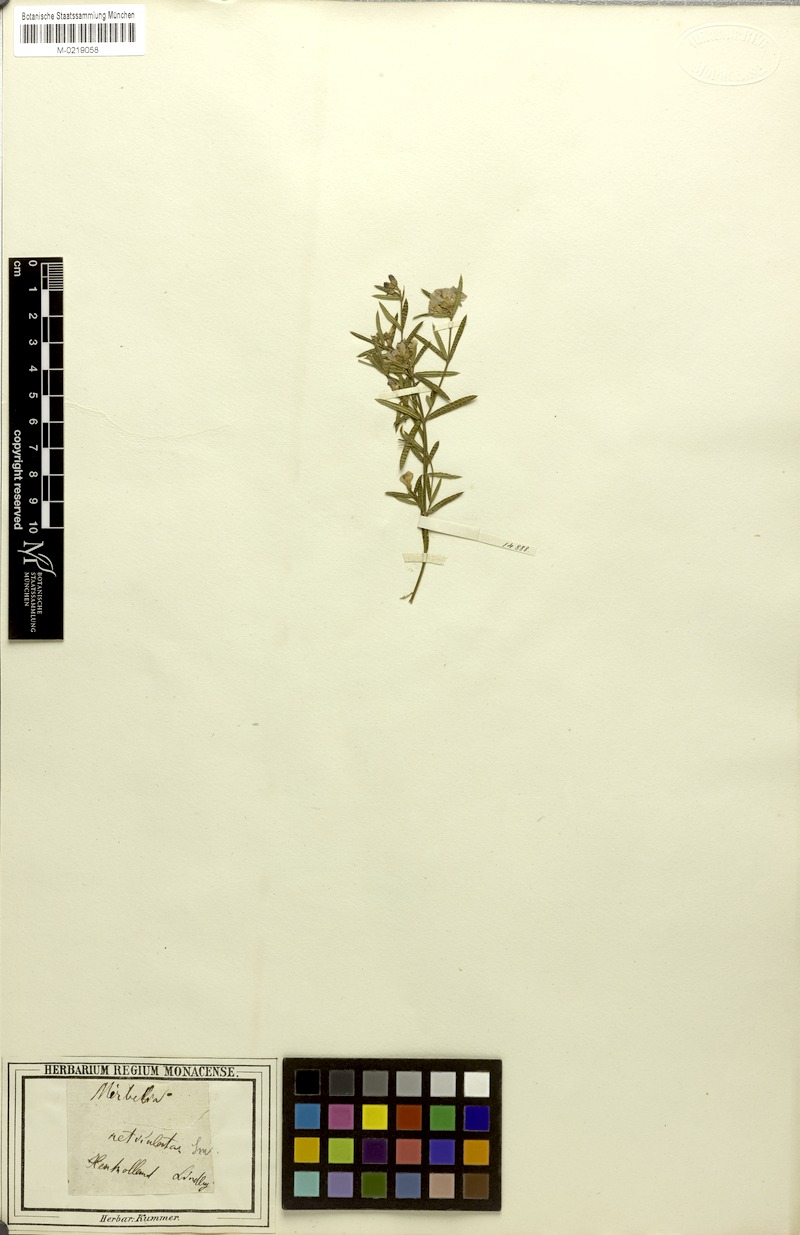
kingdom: Plantae
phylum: Tracheophyta
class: Magnoliopsida
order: Fabales
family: Fabaceae
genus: Mirbelia
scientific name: Mirbelia rubiifolia
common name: Heathy mirbelia
